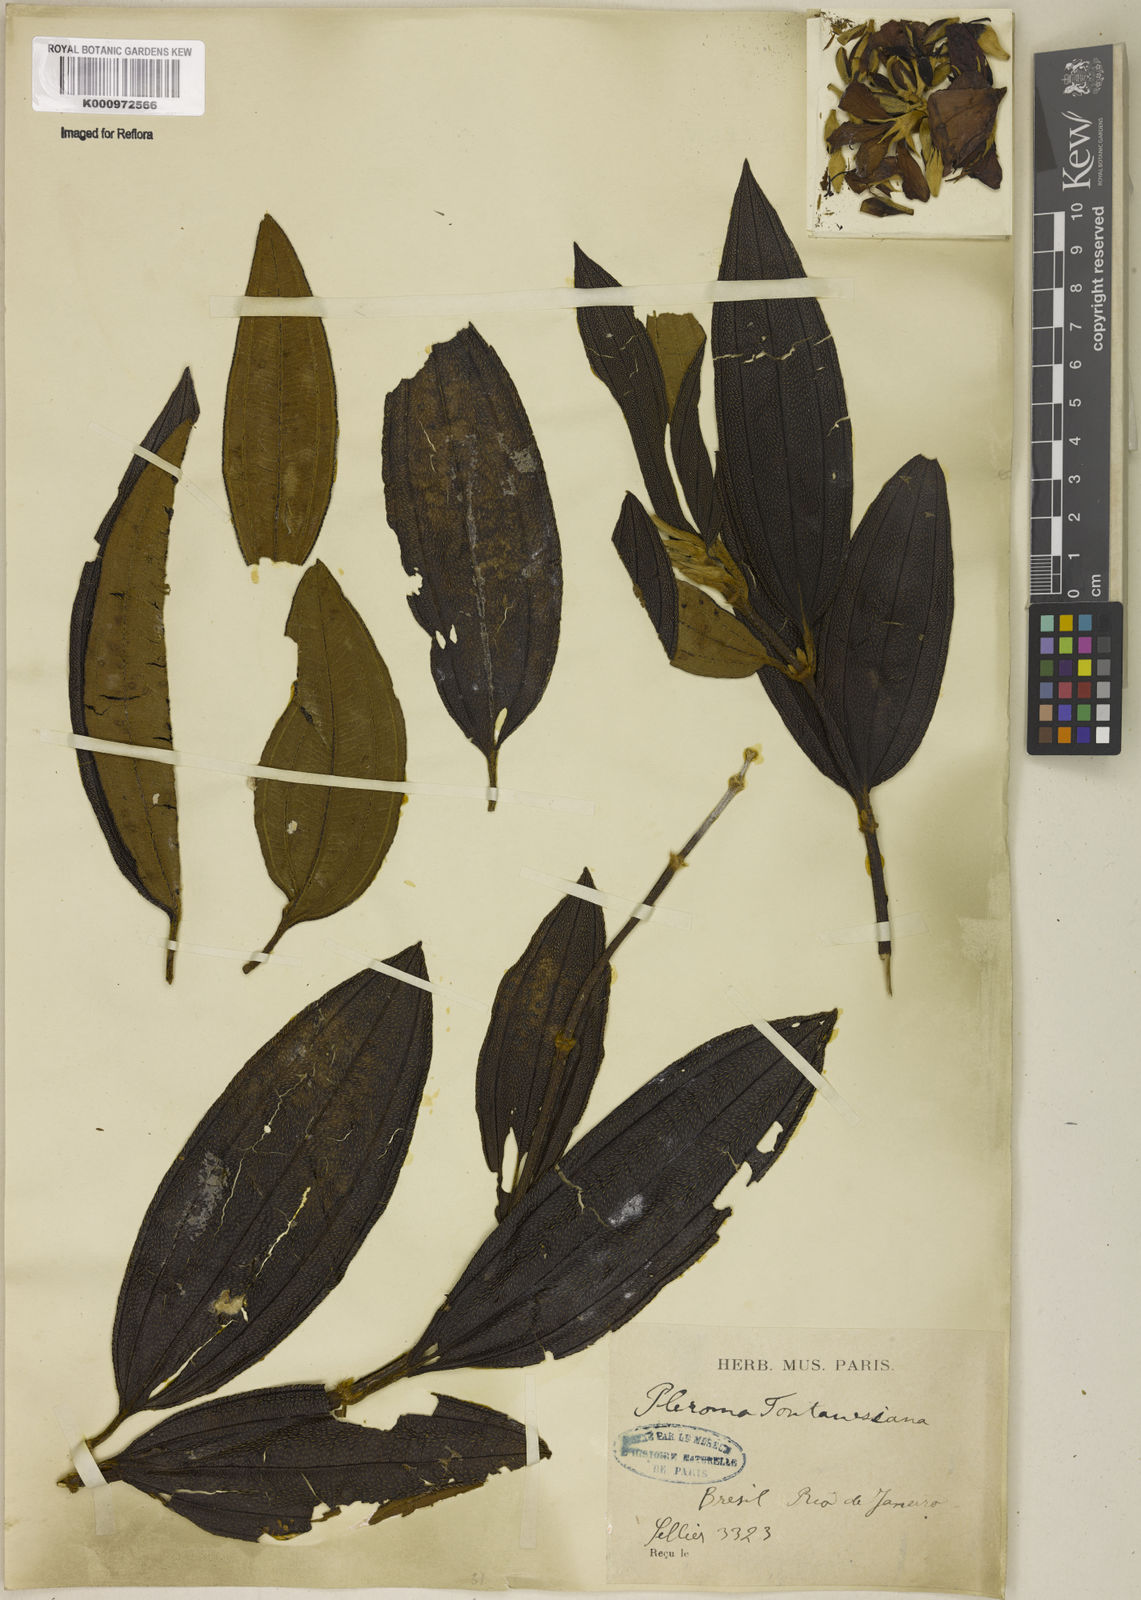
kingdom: Plantae
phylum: Tracheophyta
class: Magnoliopsida
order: Myrtales
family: Melastomataceae
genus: Pleroma
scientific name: Pleroma granulosum
